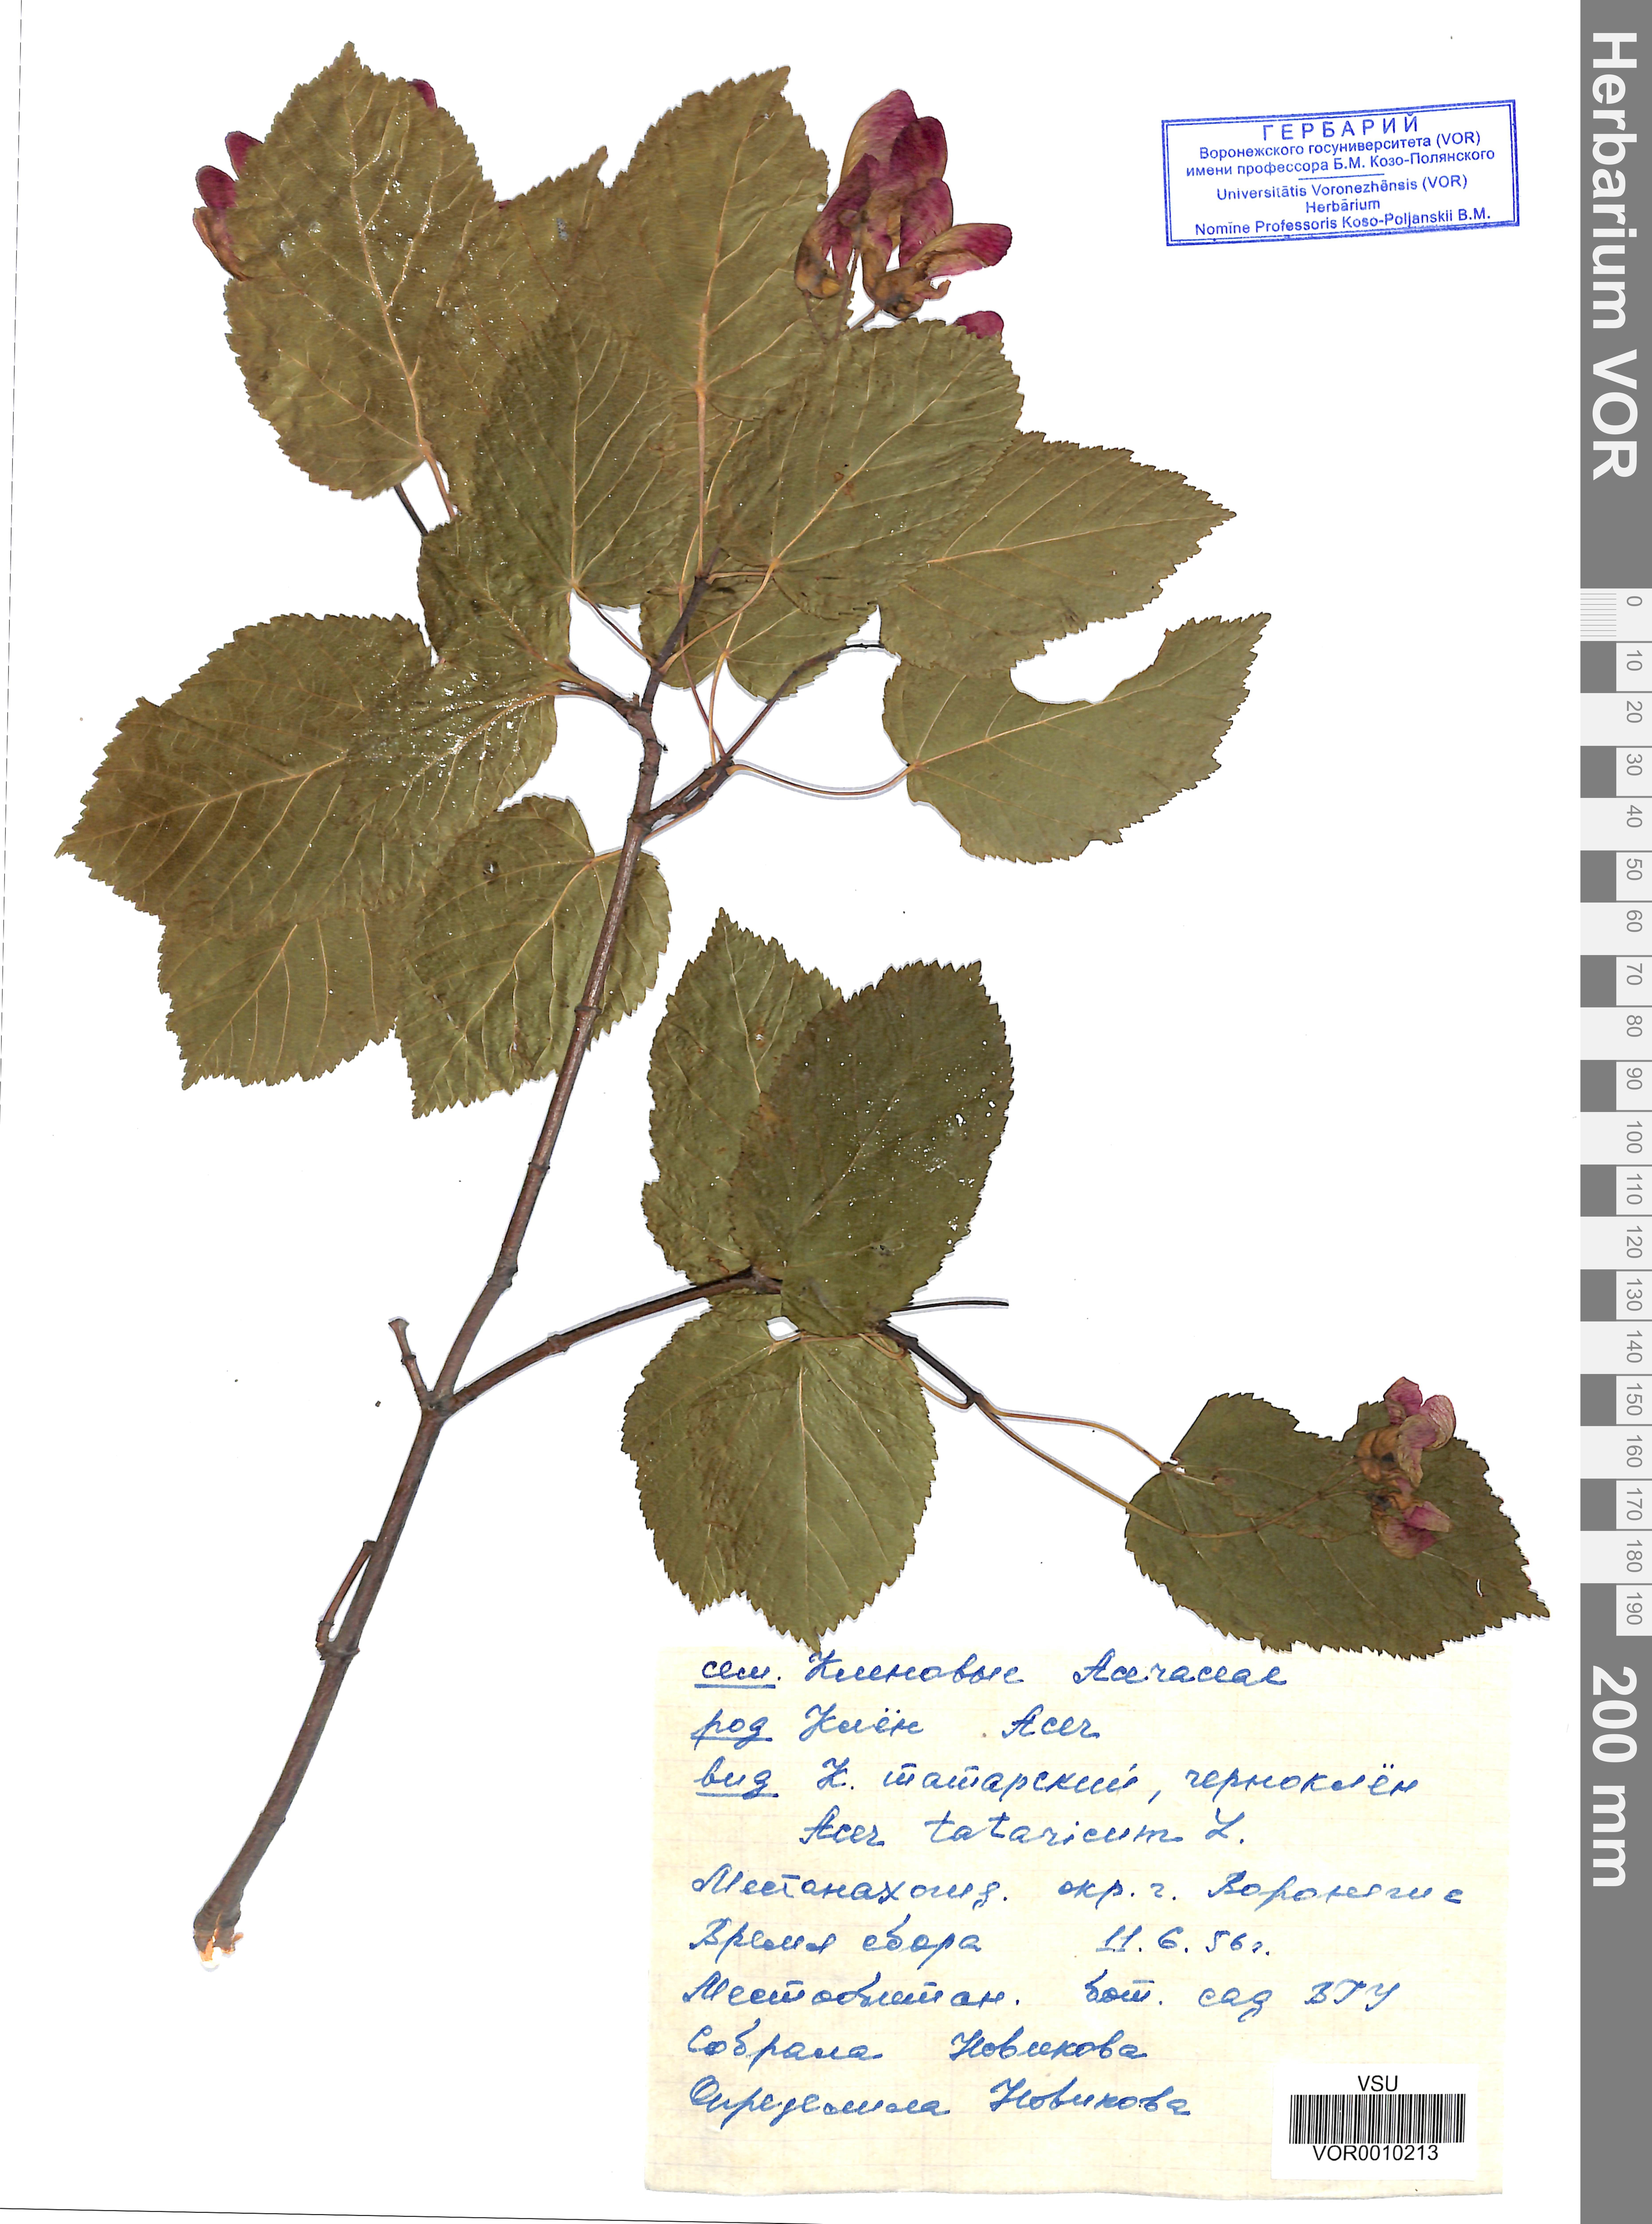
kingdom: Plantae
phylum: Tracheophyta
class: Magnoliopsida
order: Sapindales
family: Sapindaceae
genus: Acer
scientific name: Acer tataricum
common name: Tartar maple
